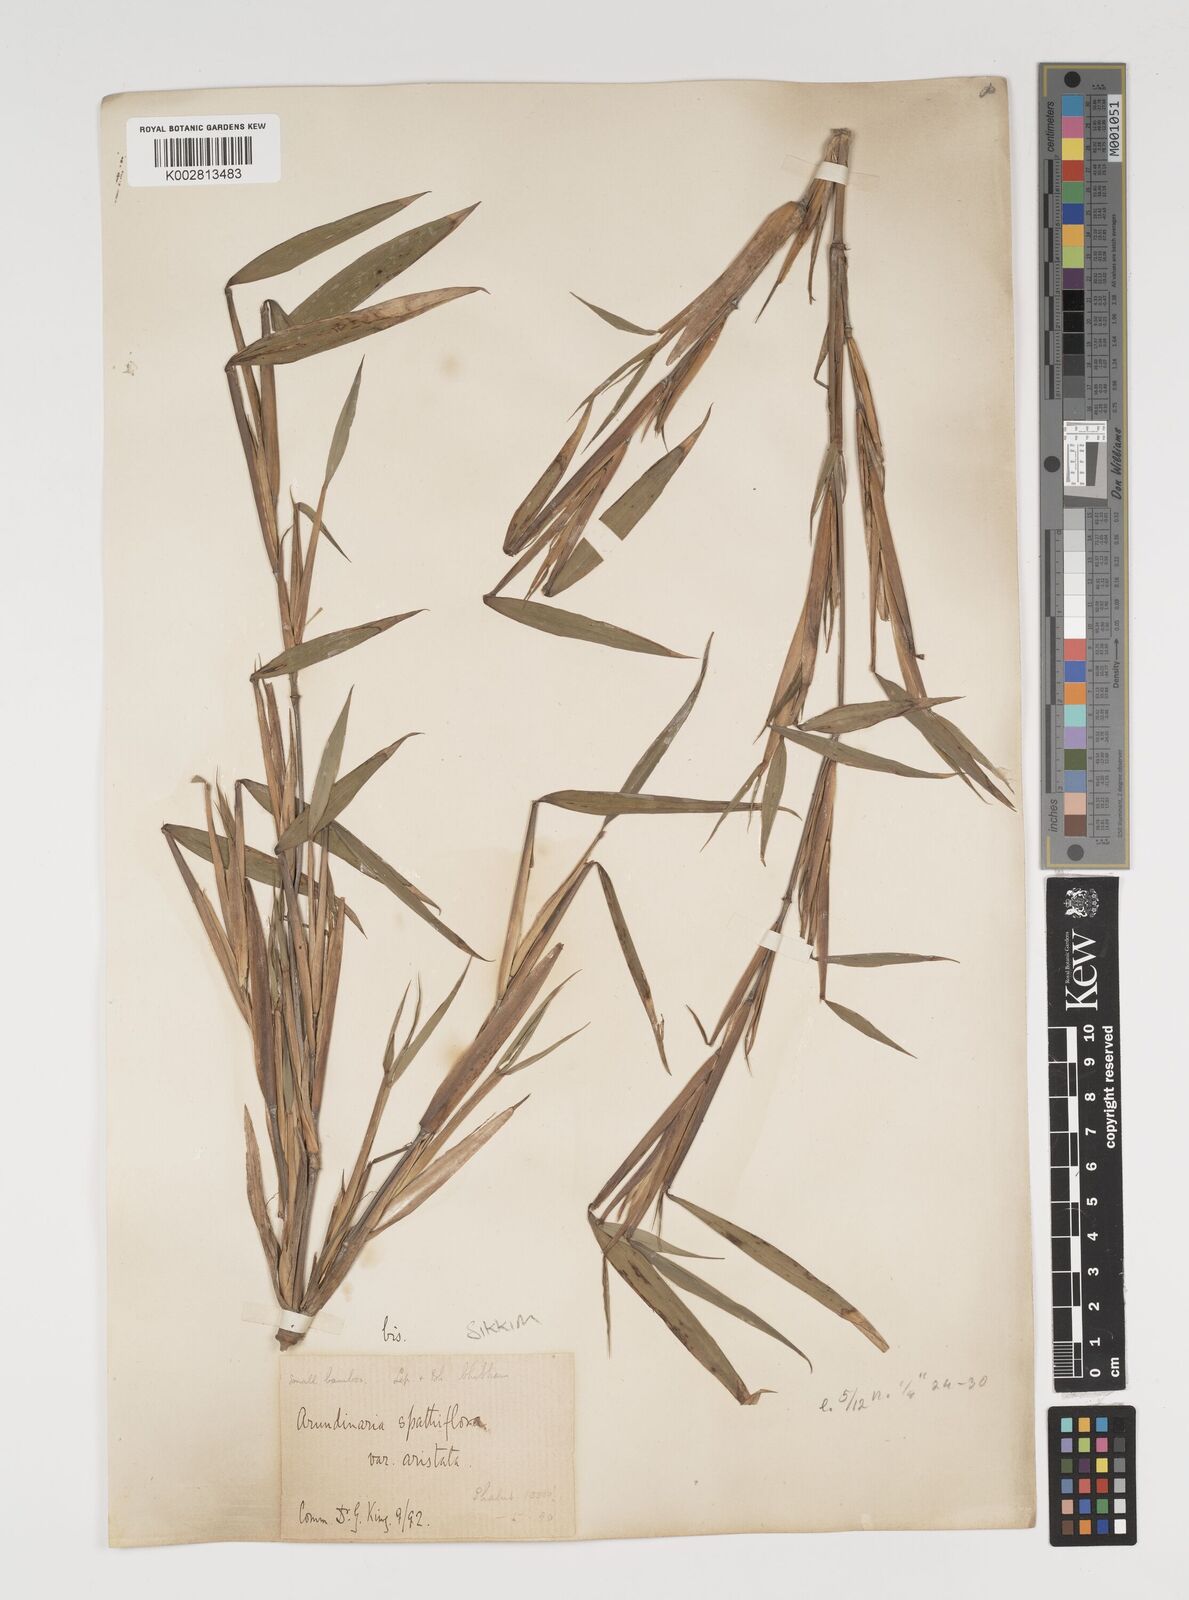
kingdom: Plantae
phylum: Tracheophyta
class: Liliopsida
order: Poales
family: Poaceae
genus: Thamnocalamus
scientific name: Thamnocalamus spathiflorus
